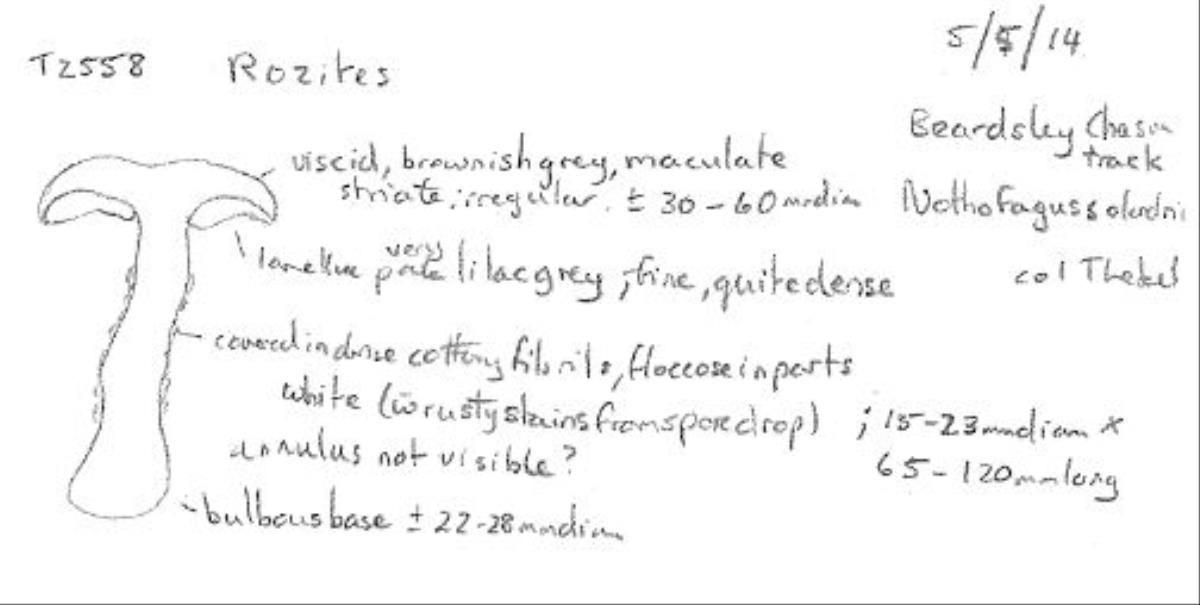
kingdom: Fungi
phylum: Basidiomycota
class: Agaricomycetes
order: Agaricales
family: Cortinariaceae
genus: Rozites
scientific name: Rozites
